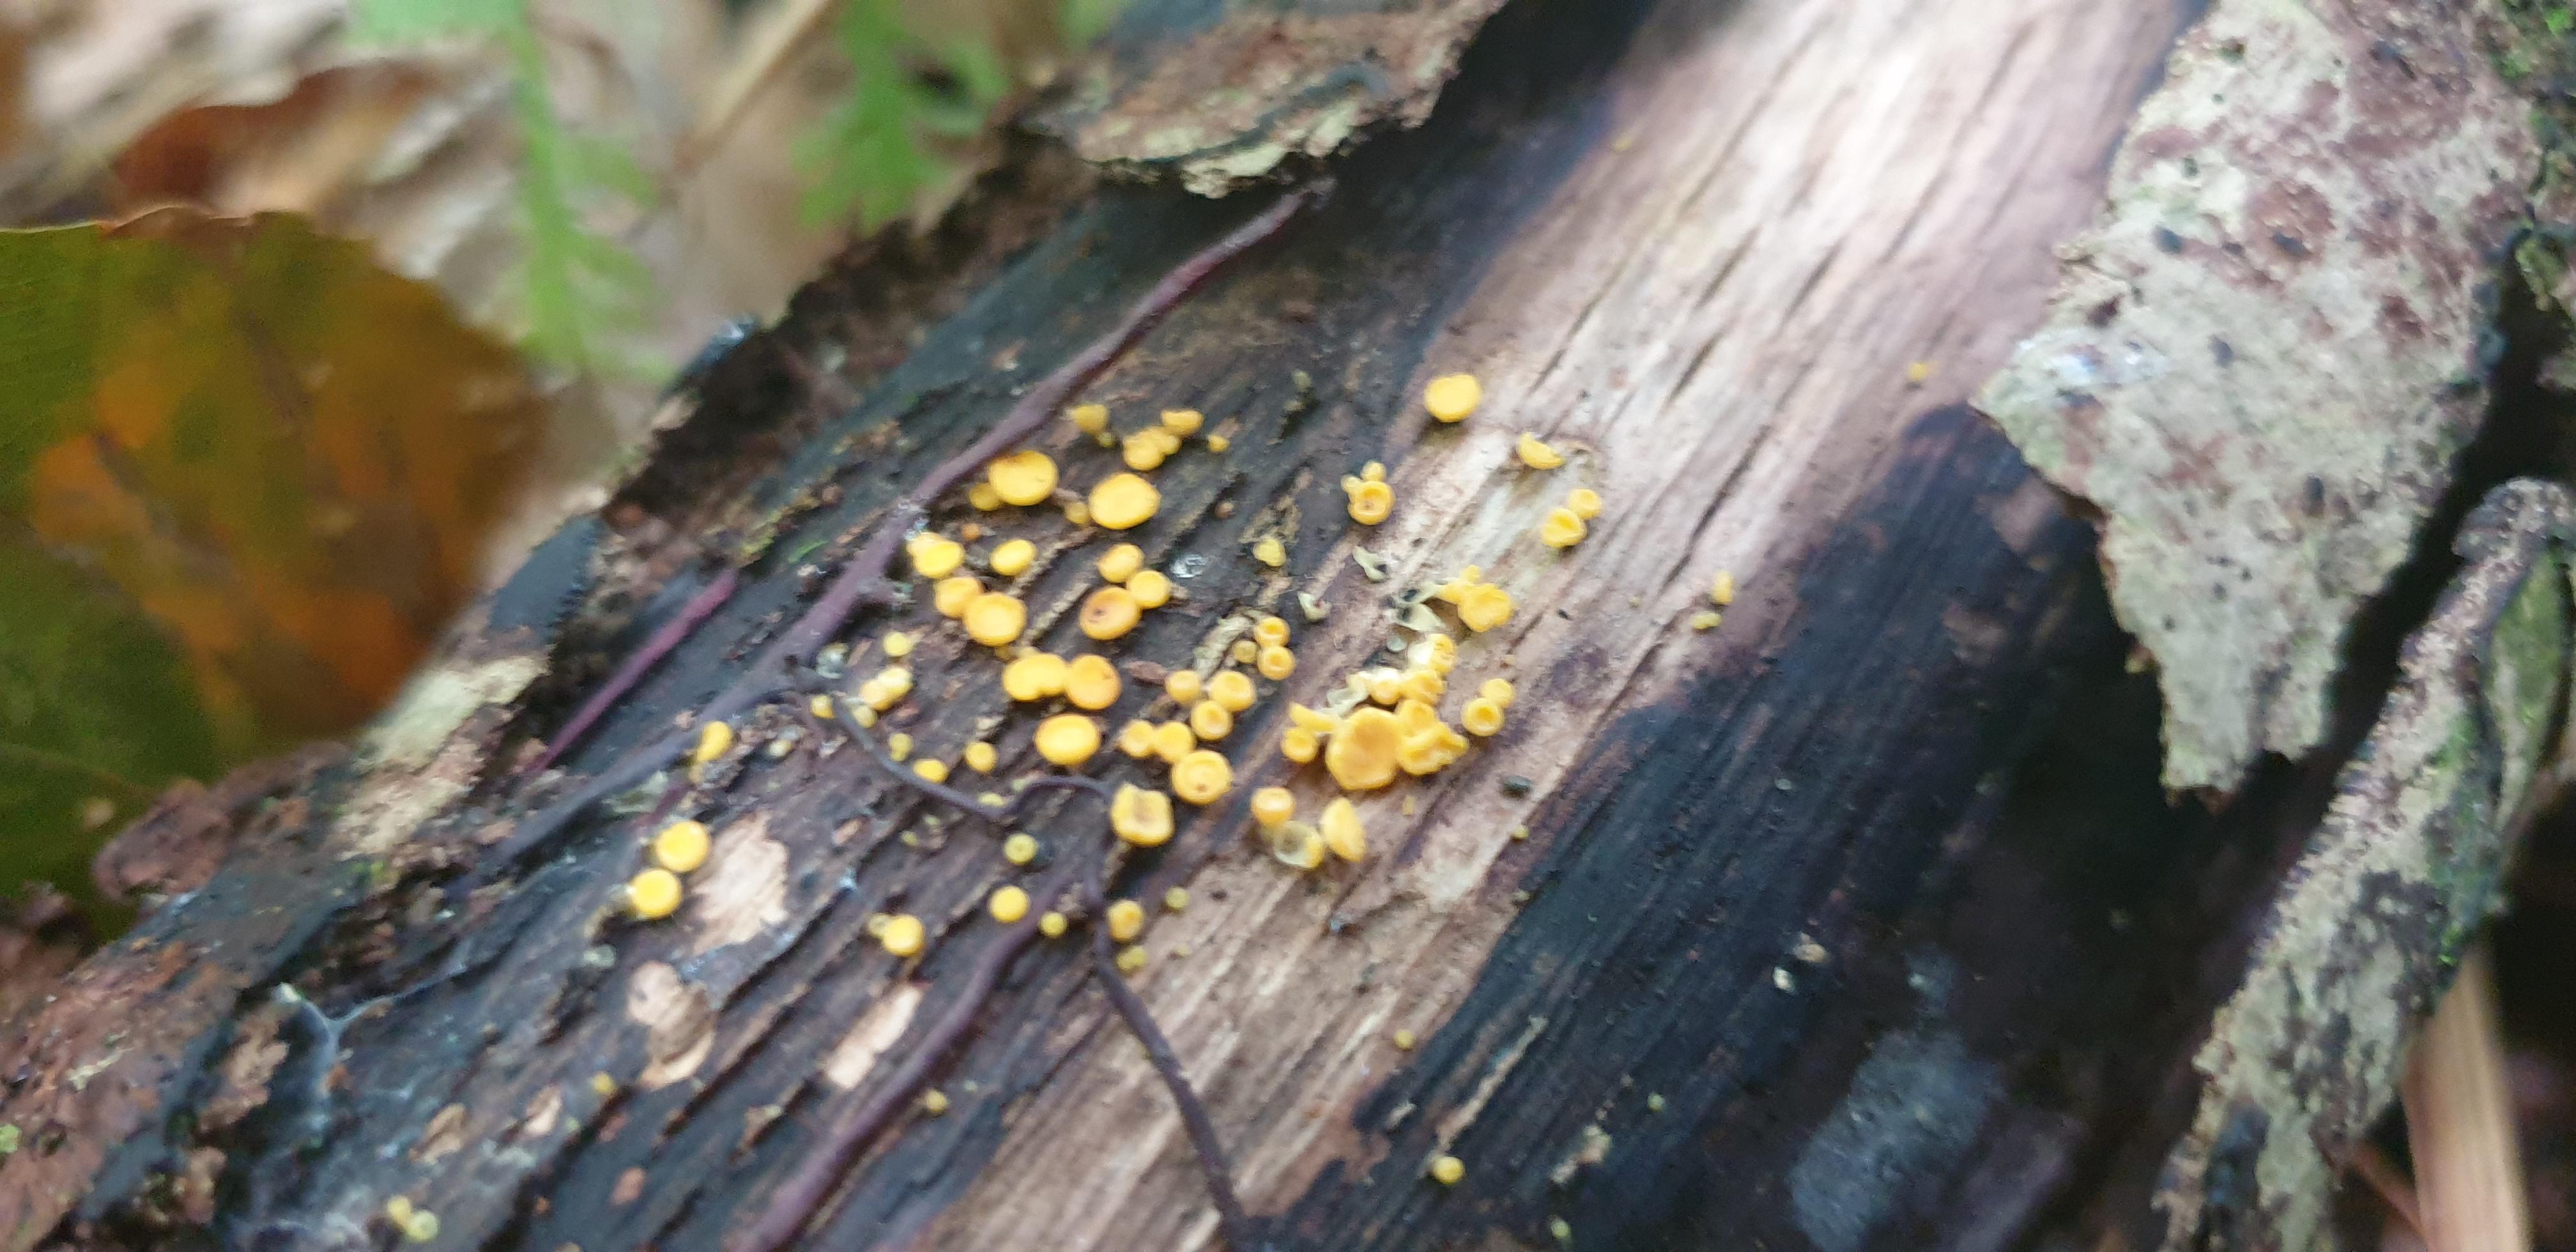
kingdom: Fungi
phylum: Ascomycota
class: Leotiomycetes
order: Helotiales
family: Pezizellaceae
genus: Calycina
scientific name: Calycina citrina
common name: almindelig gulskive
